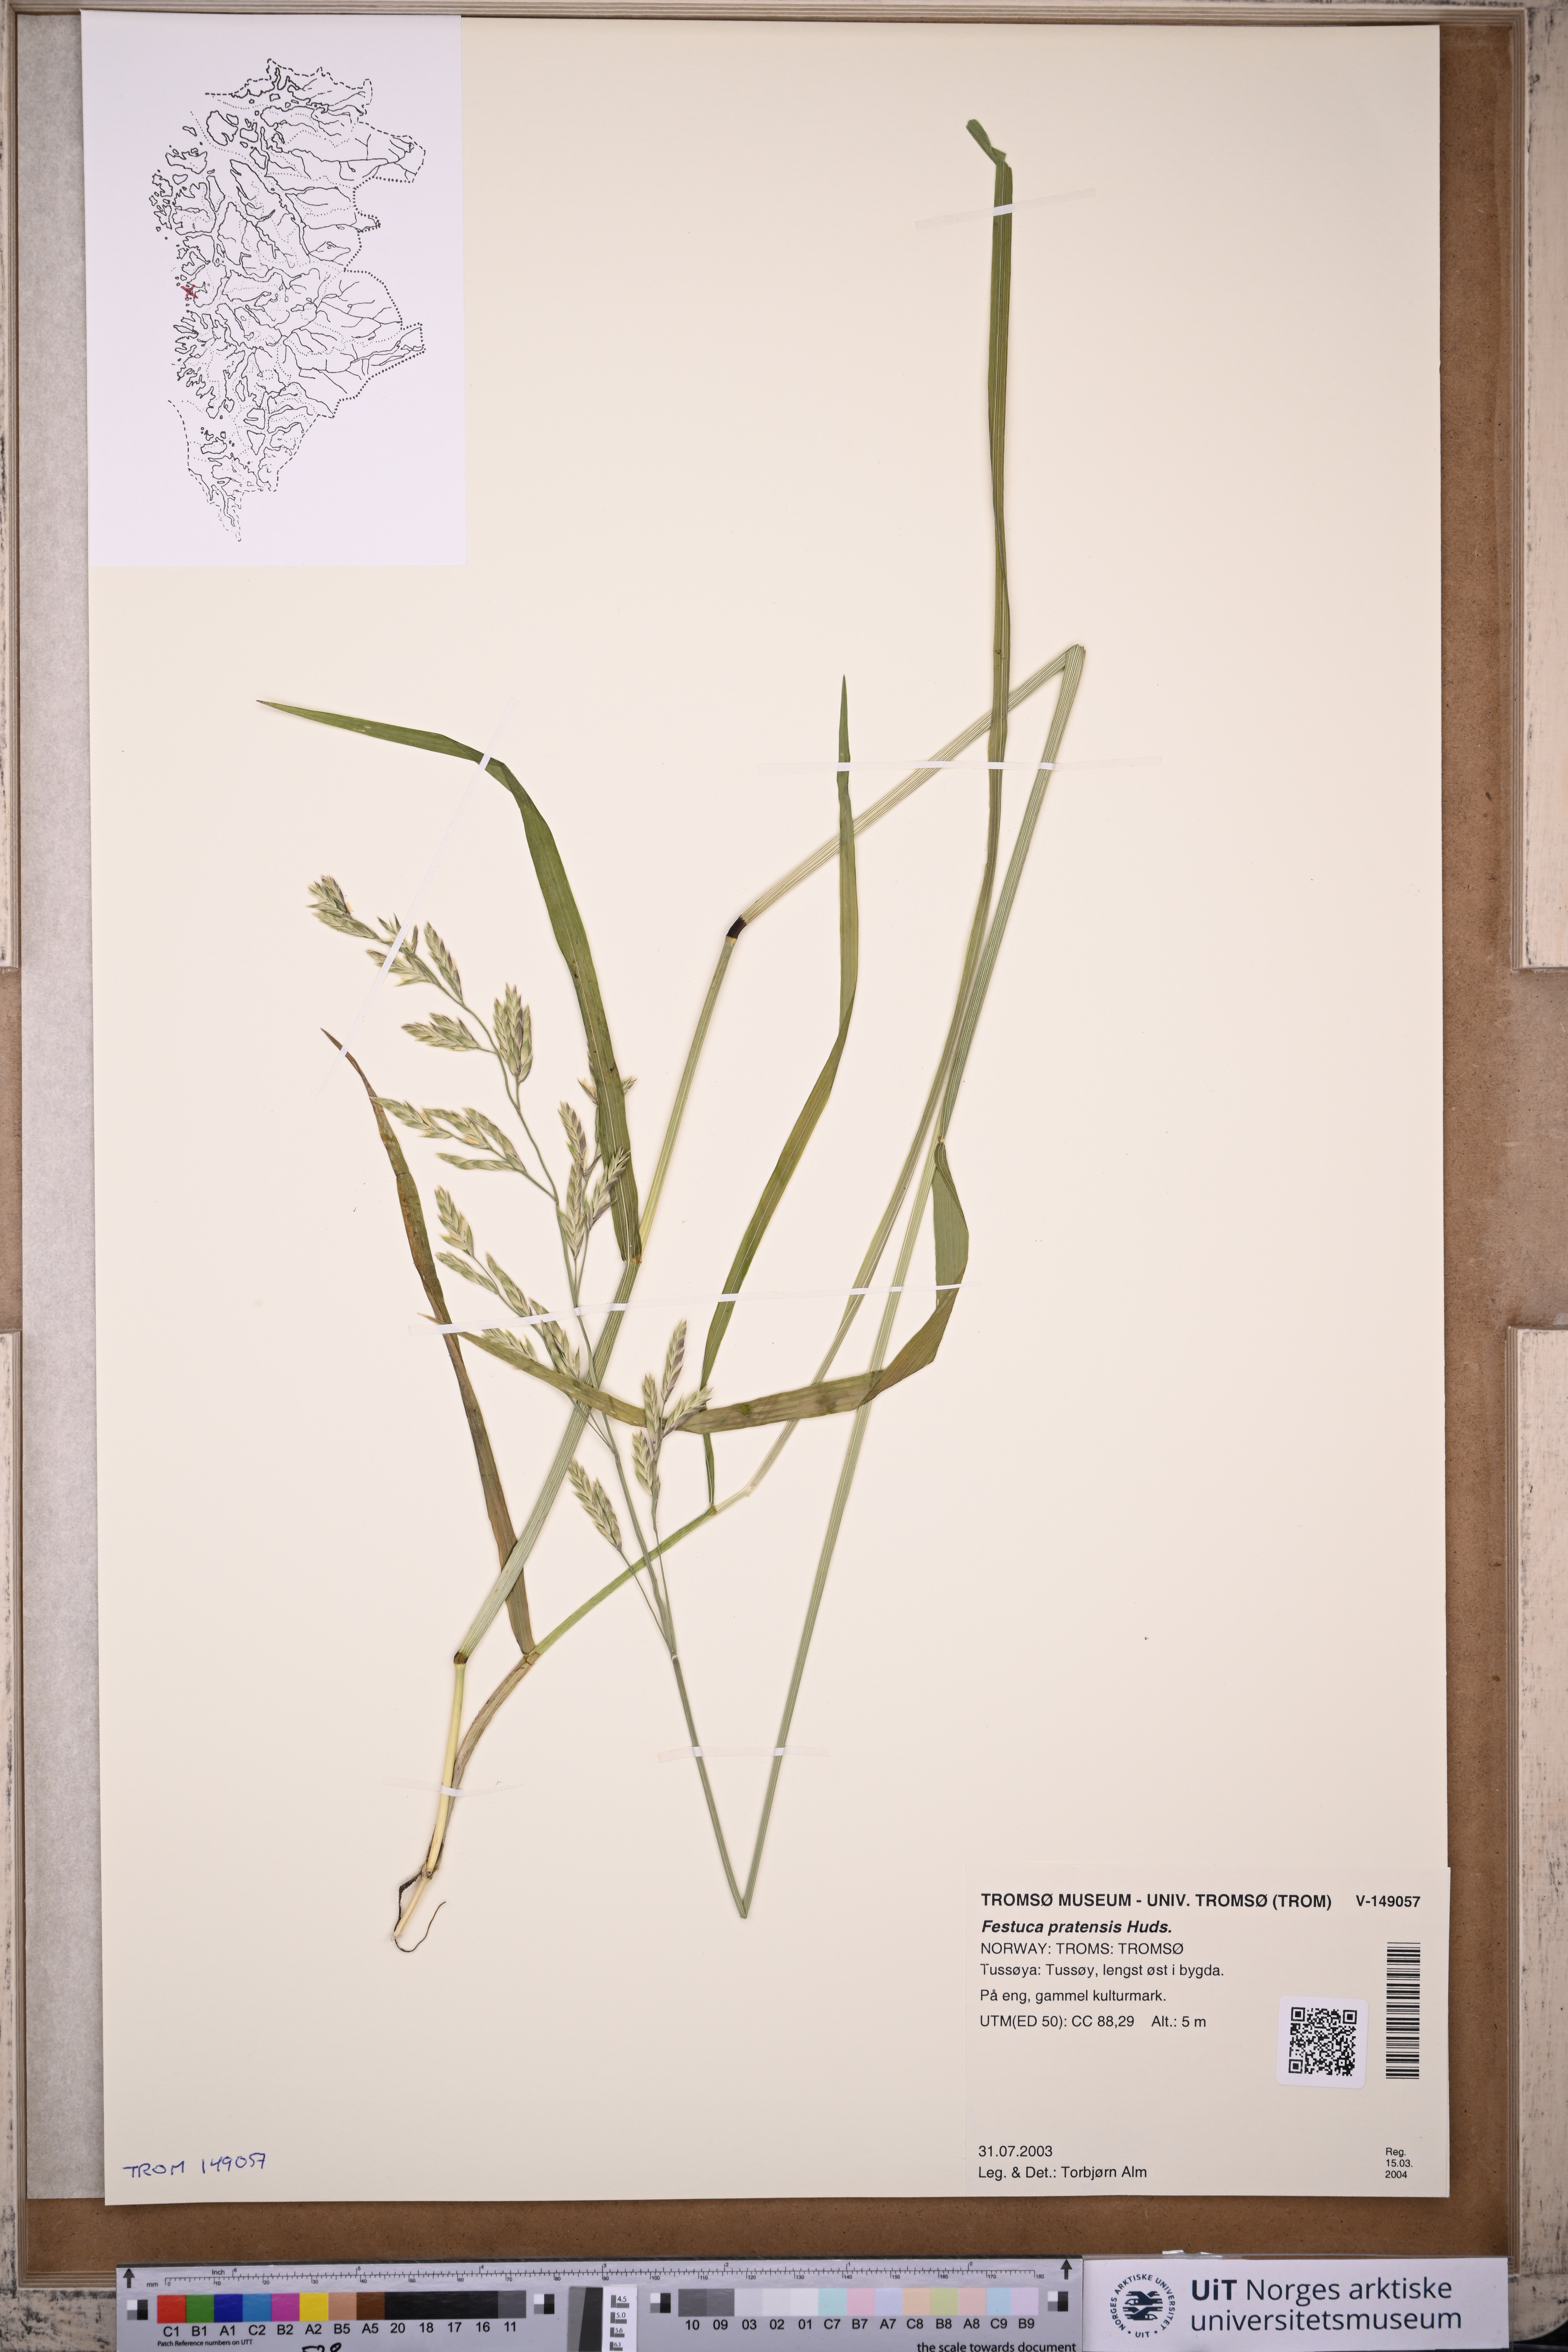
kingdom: Plantae
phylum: Tracheophyta
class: Liliopsida
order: Poales
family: Poaceae
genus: Lolium
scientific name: Lolium pratense
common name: Dover grass
